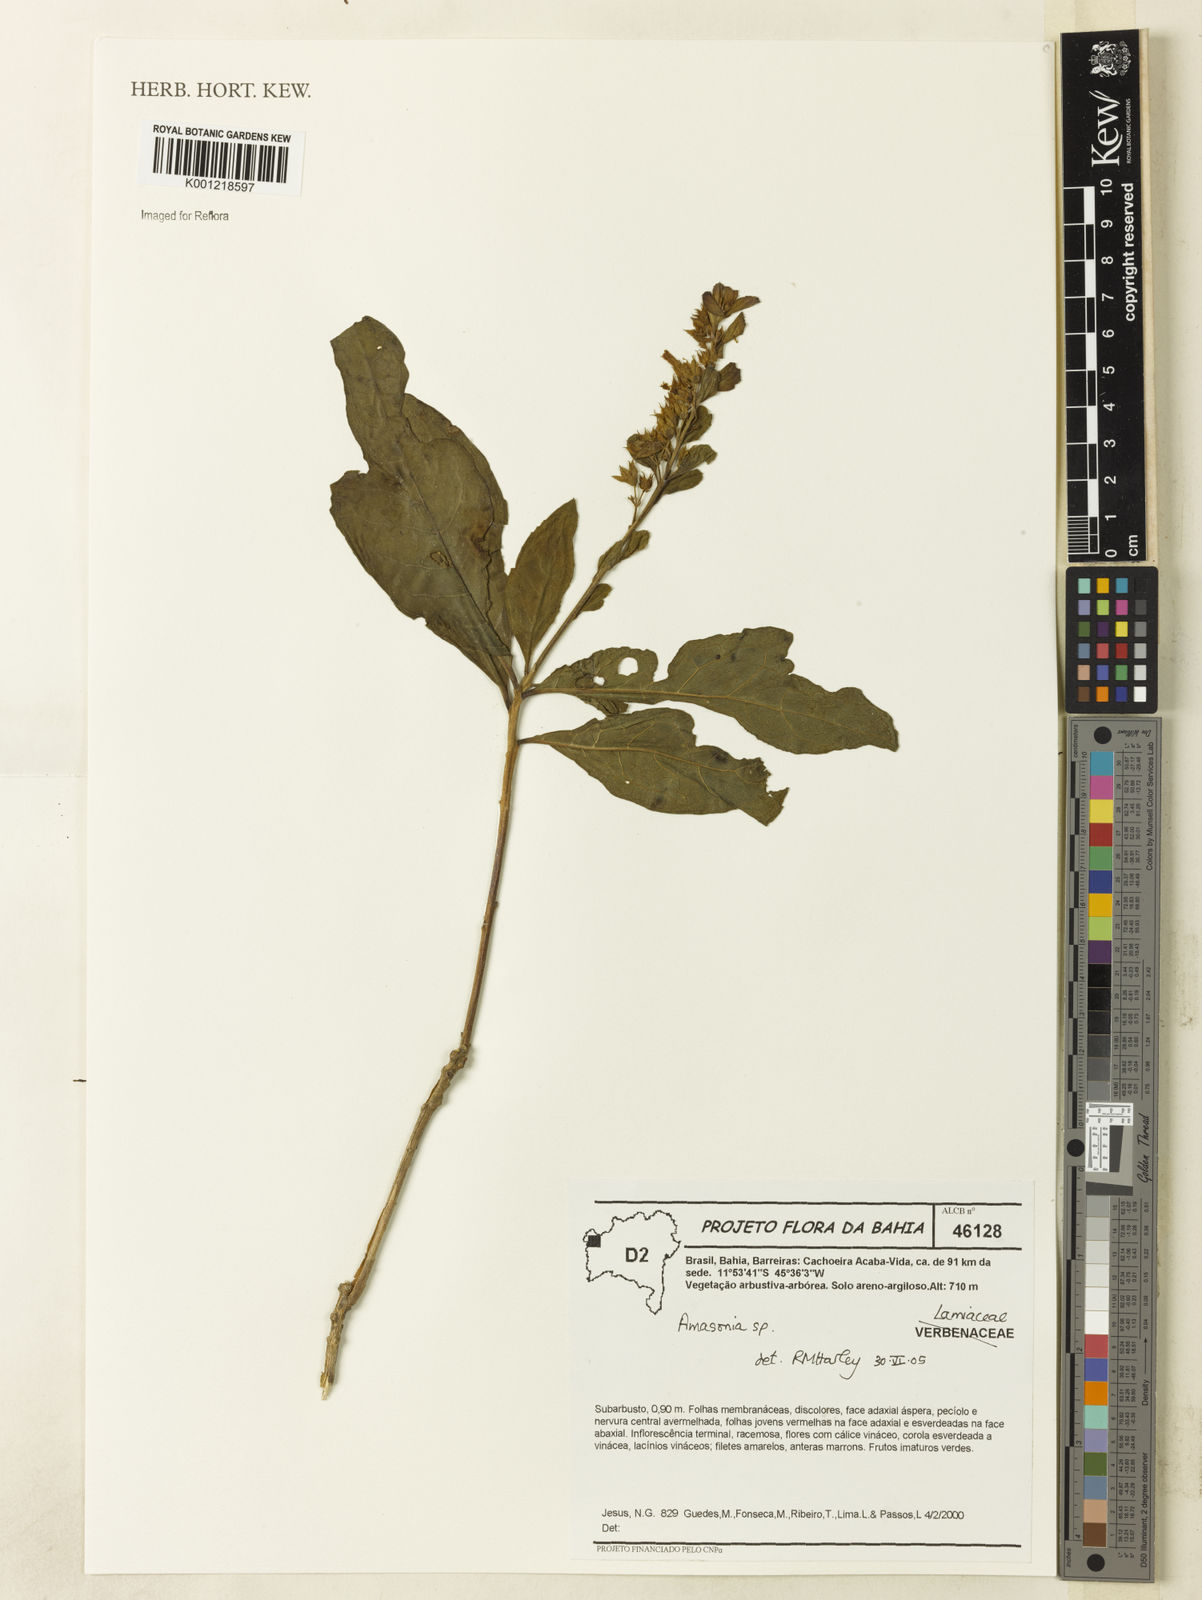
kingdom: Plantae
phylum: Tracheophyta
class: Magnoliopsida
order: Lamiales
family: Lamiaceae
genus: Amasonia
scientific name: Amasonia
